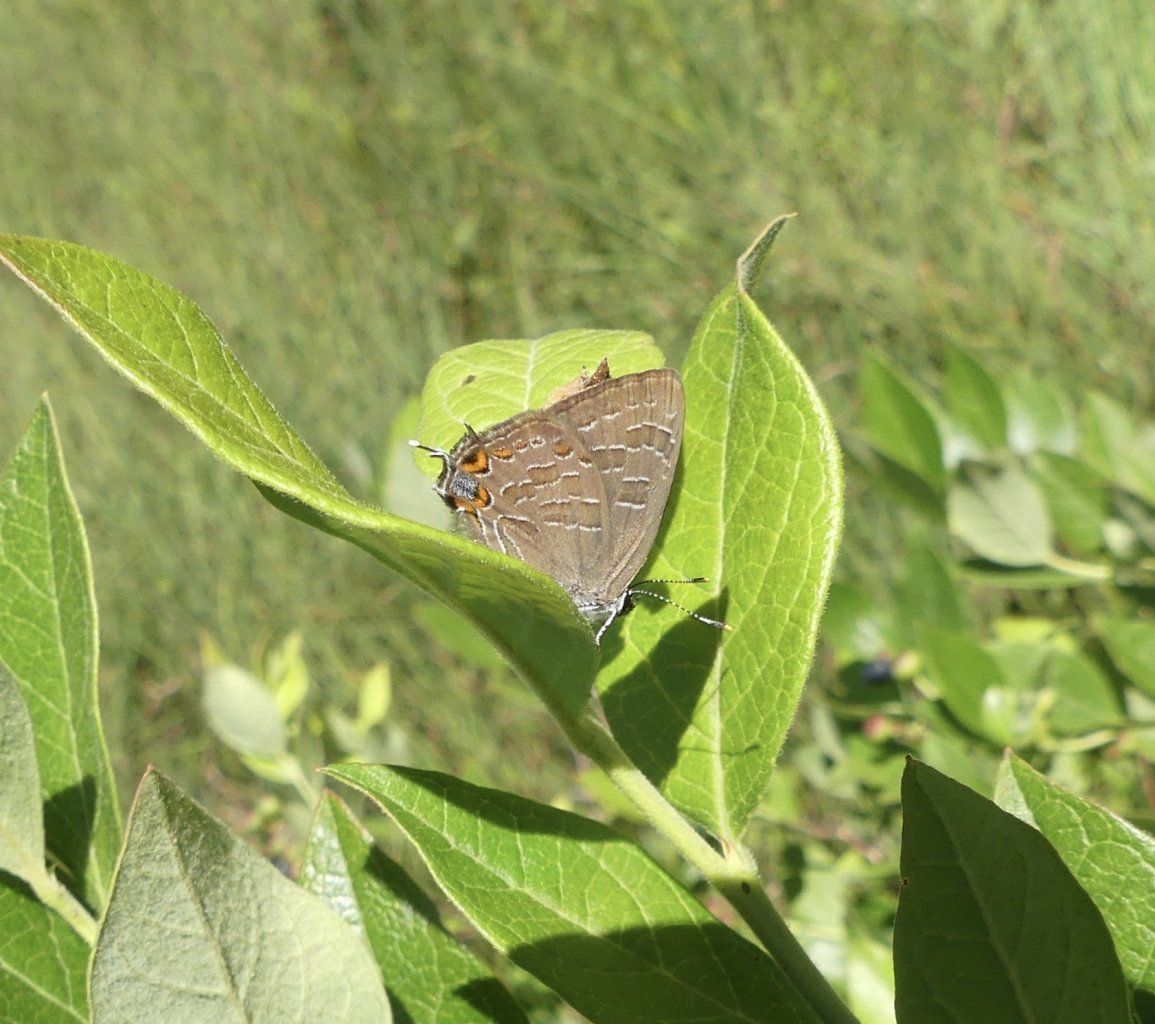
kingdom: Animalia
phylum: Arthropoda
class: Insecta
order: Lepidoptera
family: Lycaenidae
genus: Satyrium
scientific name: Satyrium liparops
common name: Striped Hairstreak
